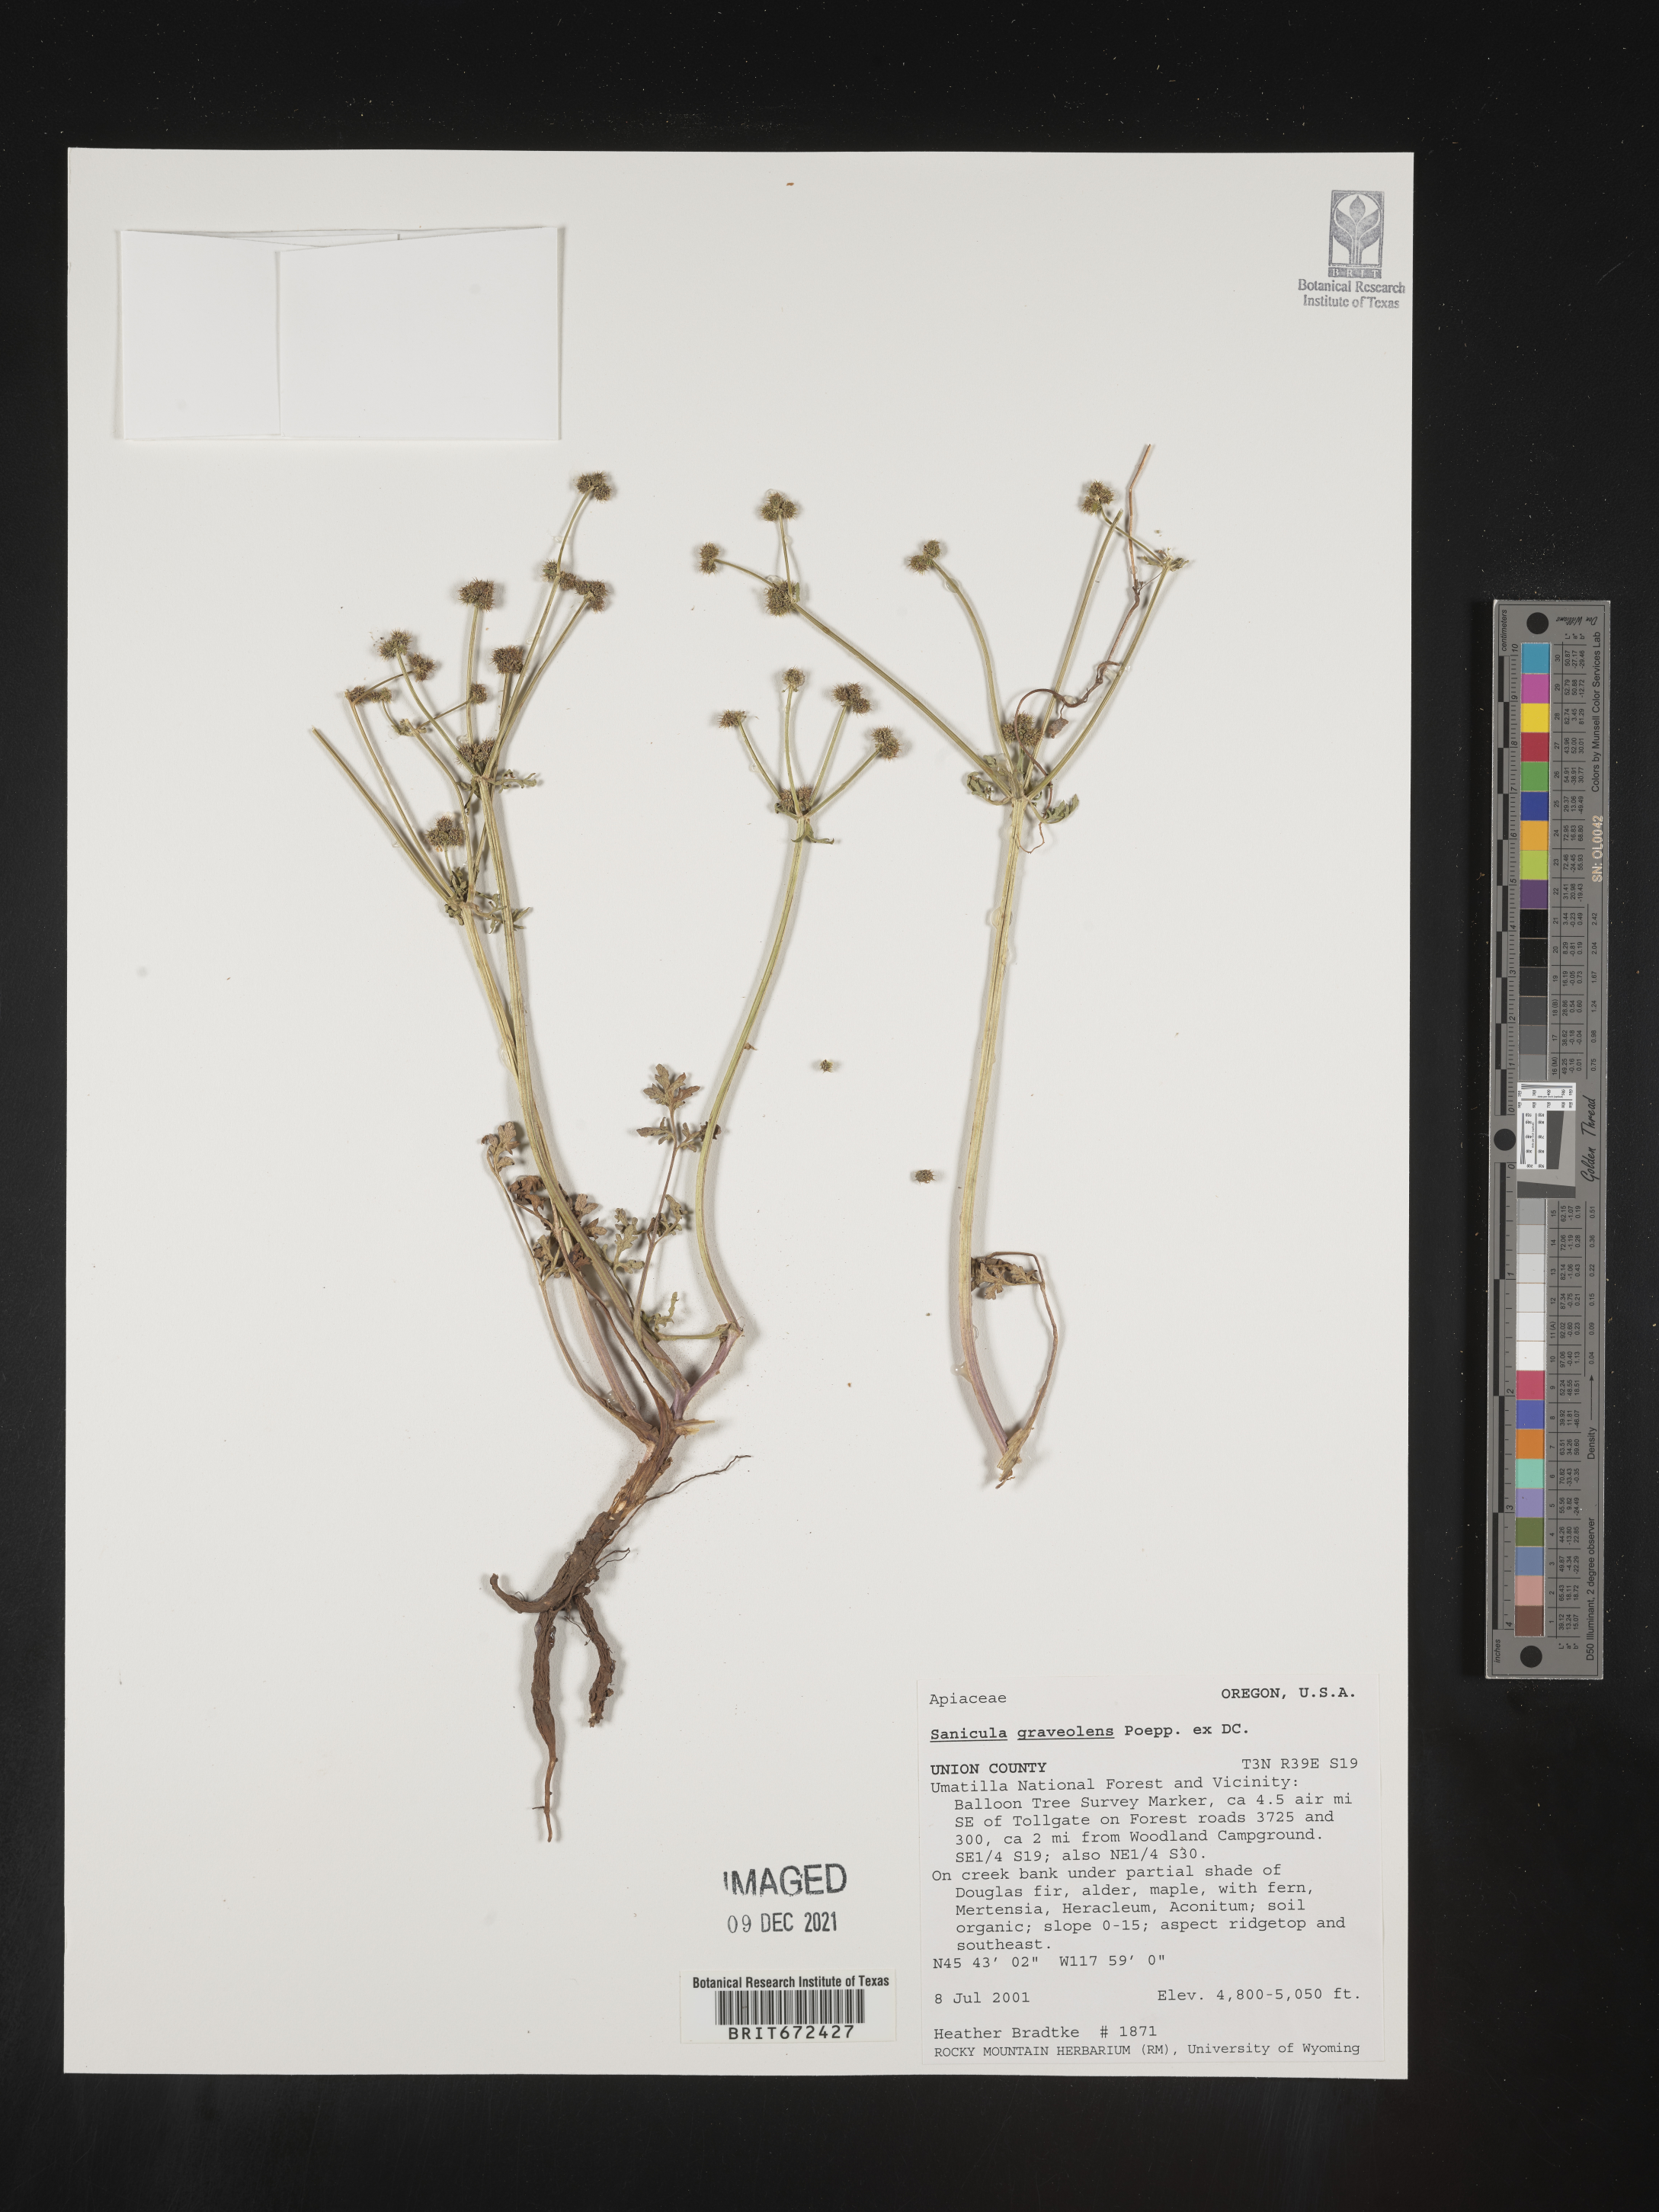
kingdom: Plantae
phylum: Tracheophyta
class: Magnoliopsida
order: Apiales
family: Apiaceae
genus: Sanicula
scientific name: Sanicula graveolens
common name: Sierra sanicle
